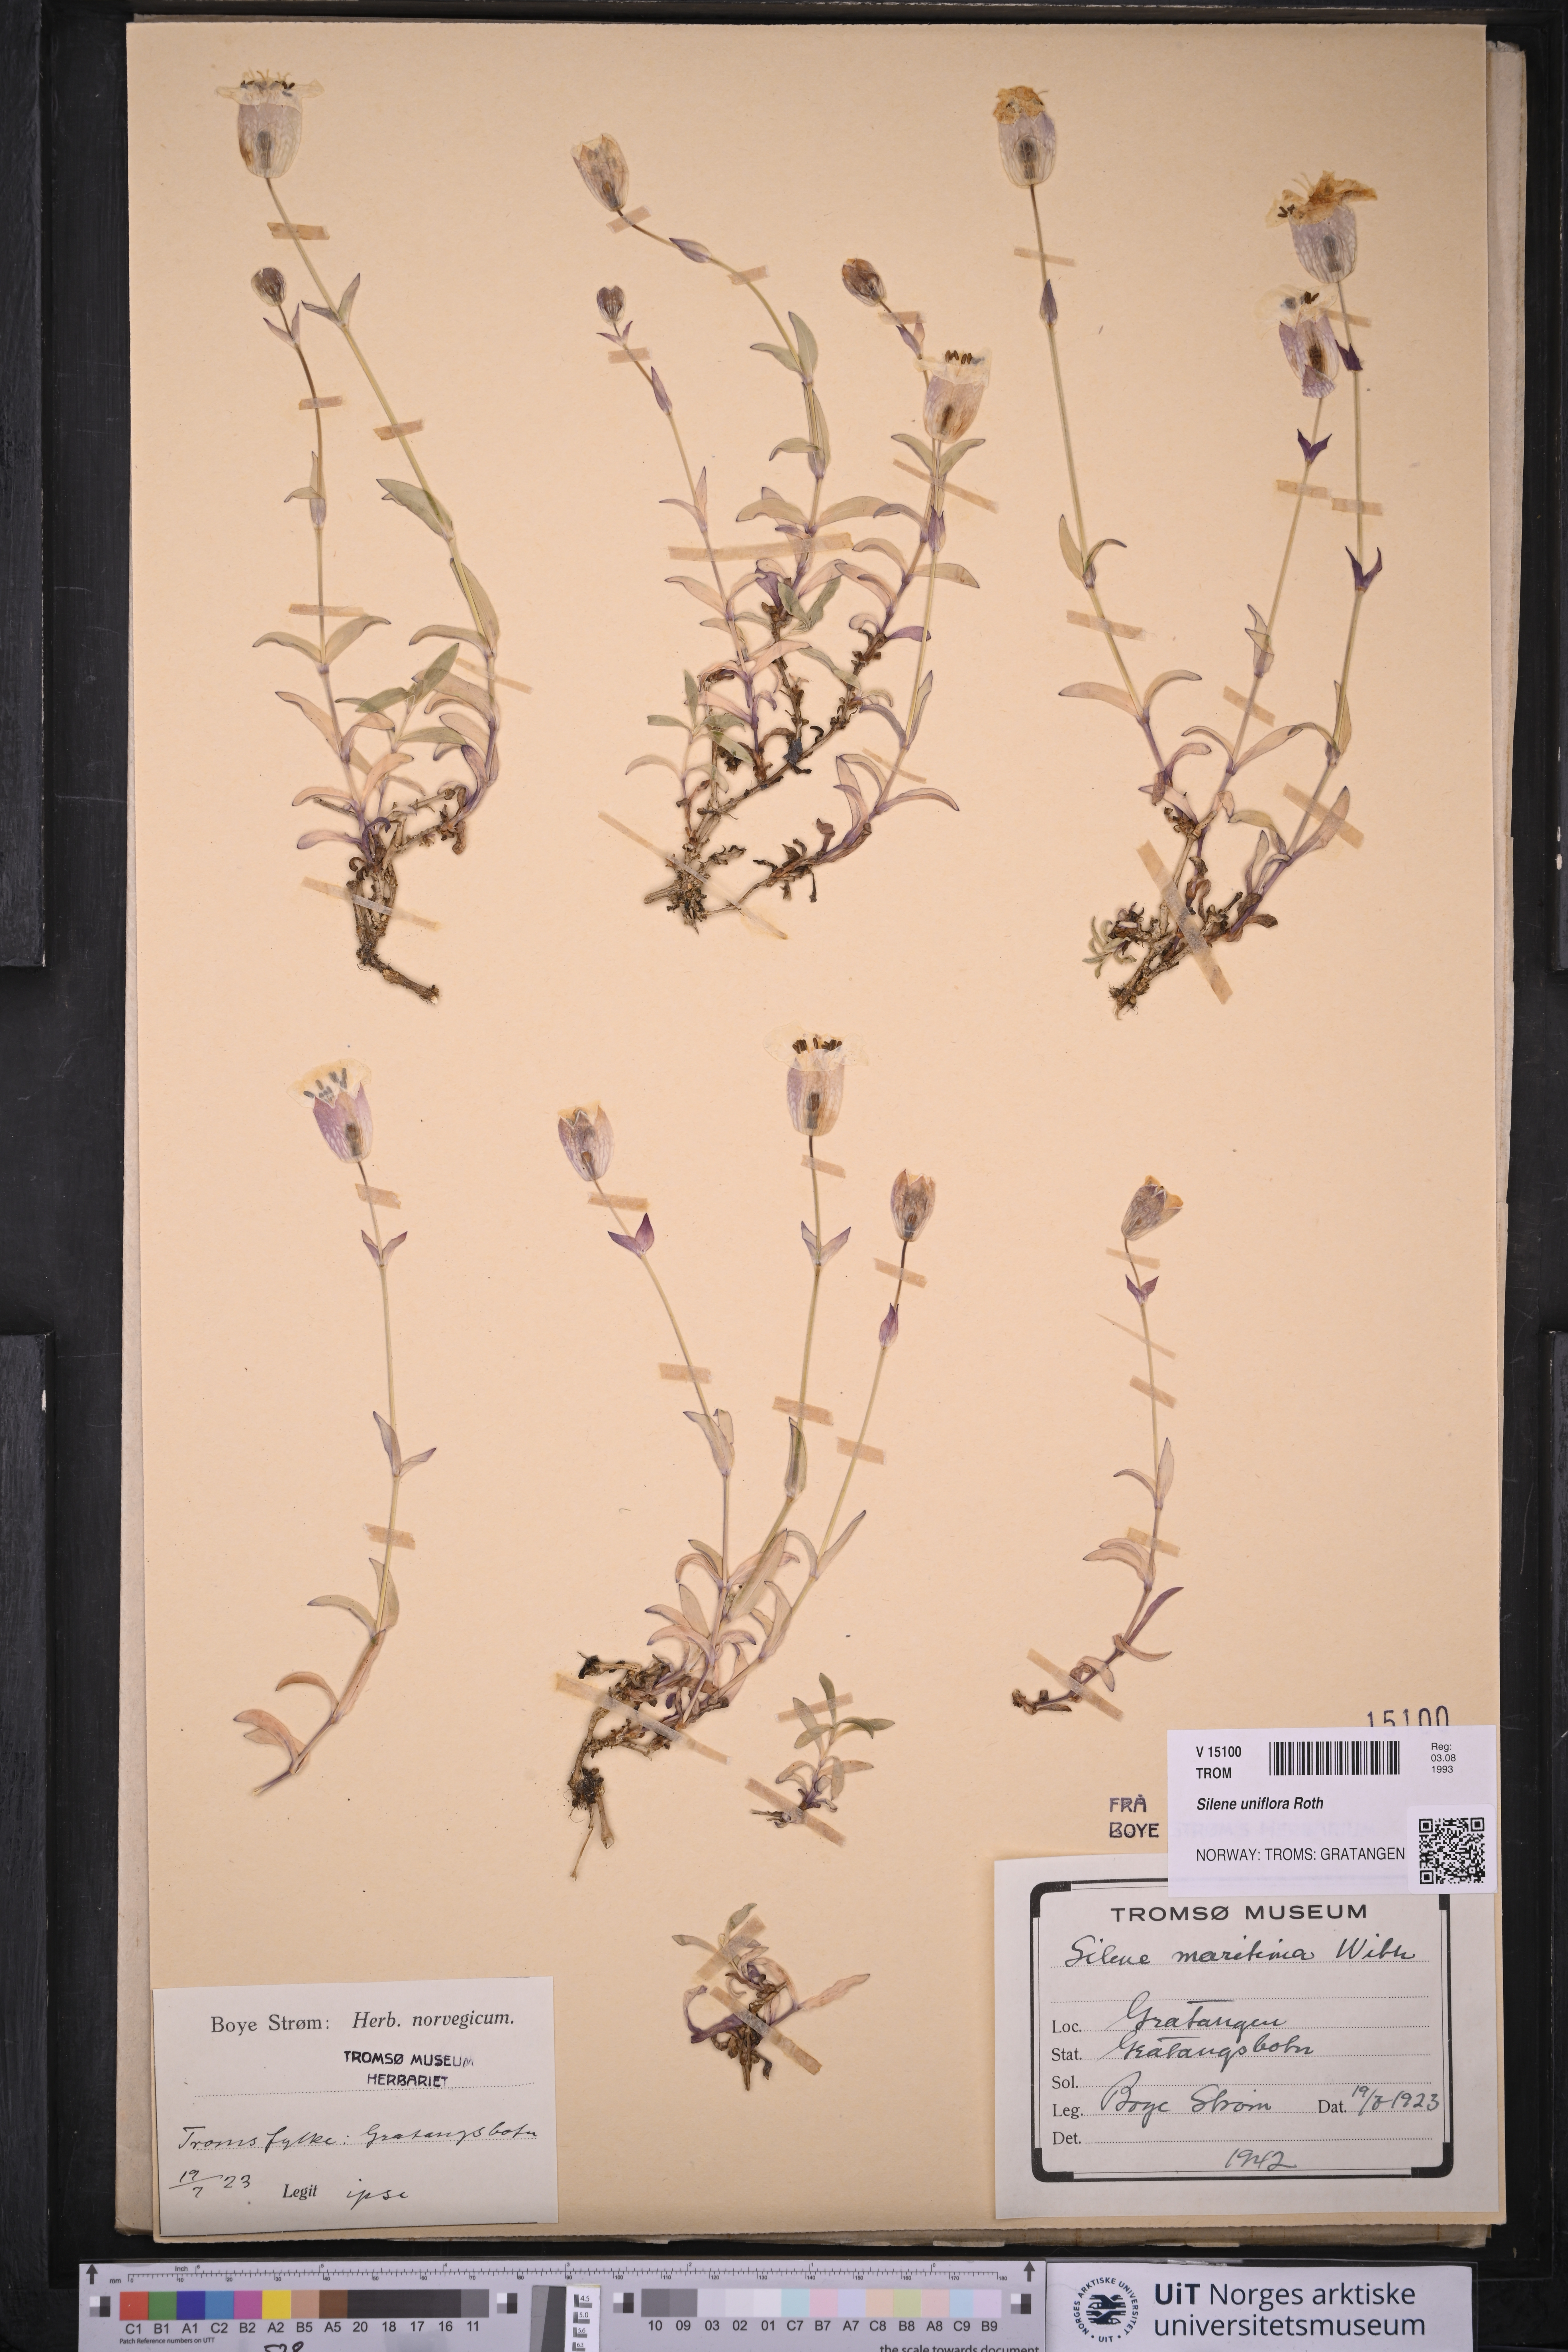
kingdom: Plantae
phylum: Tracheophyta
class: Magnoliopsida
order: Caryophyllales
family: Caryophyllaceae
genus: Silene
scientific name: Silene uniflora
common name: Sea campion
